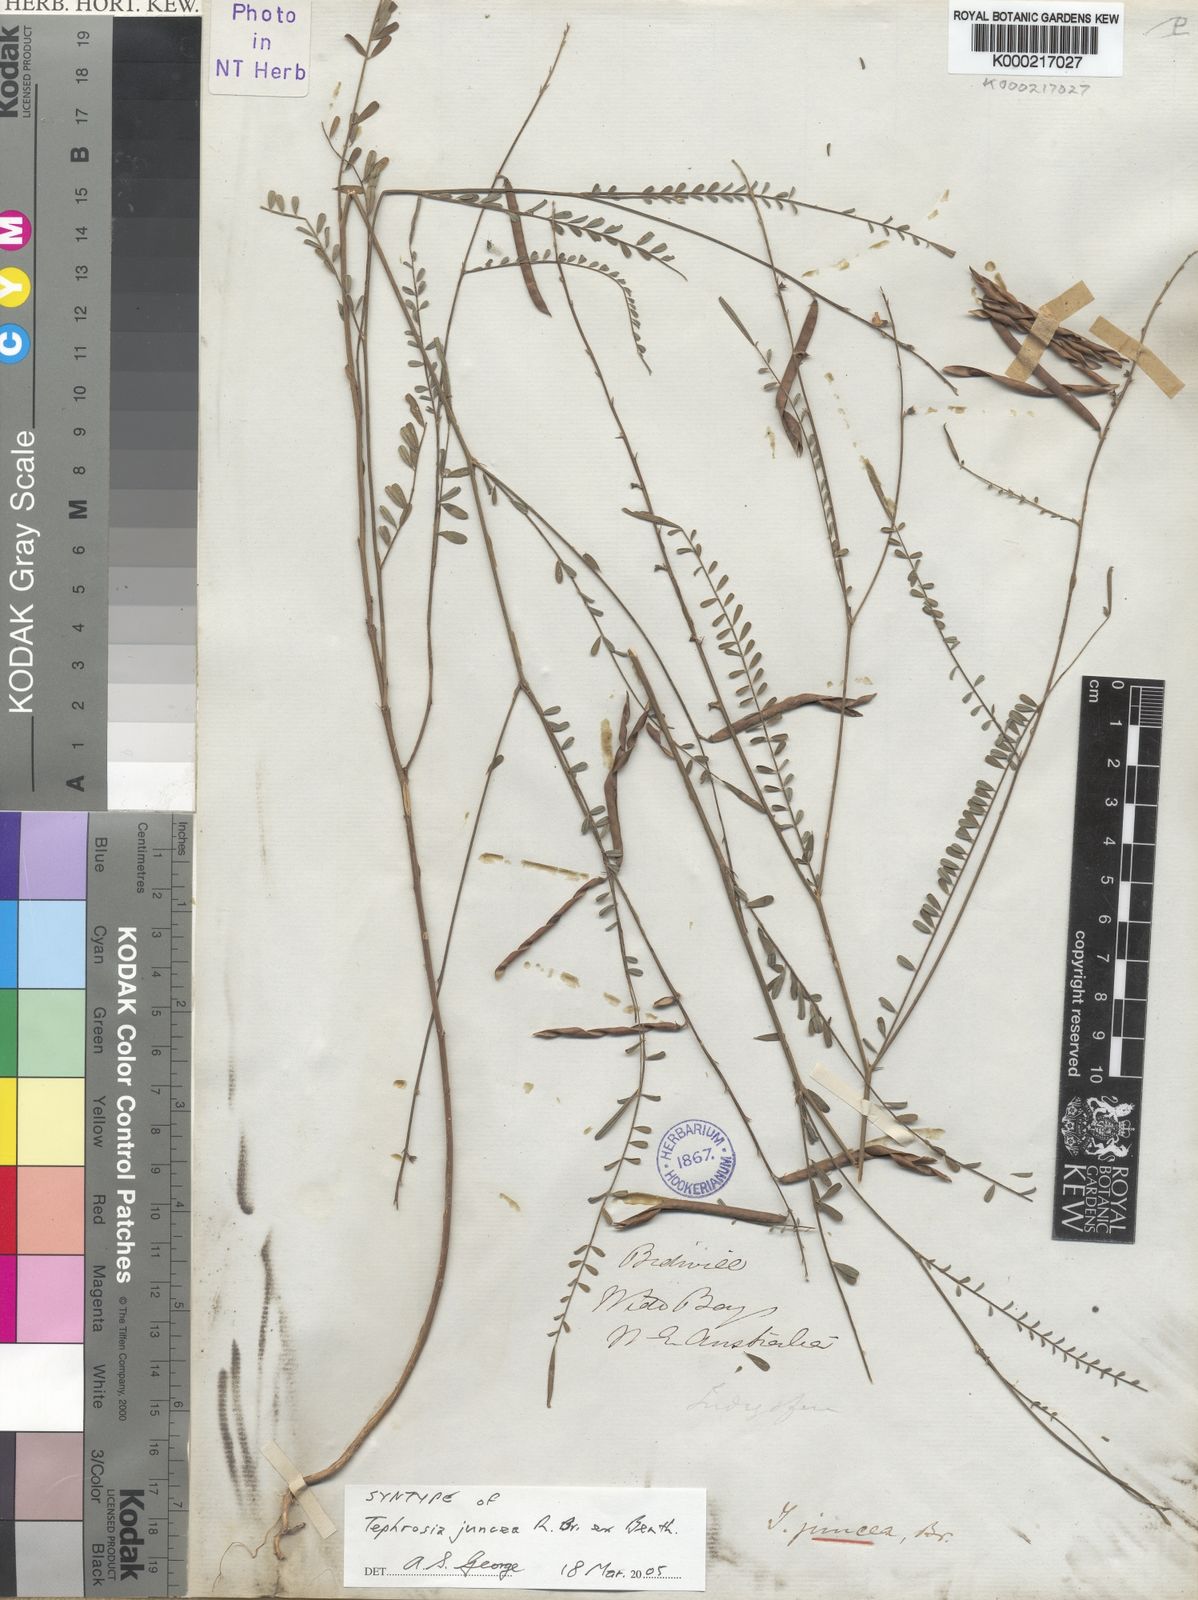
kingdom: Plantae
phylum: Tracheophyta
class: Magnoliopsida
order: Fabales
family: Fabaceae
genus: Tephrosia
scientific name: Tephrosia juncea
